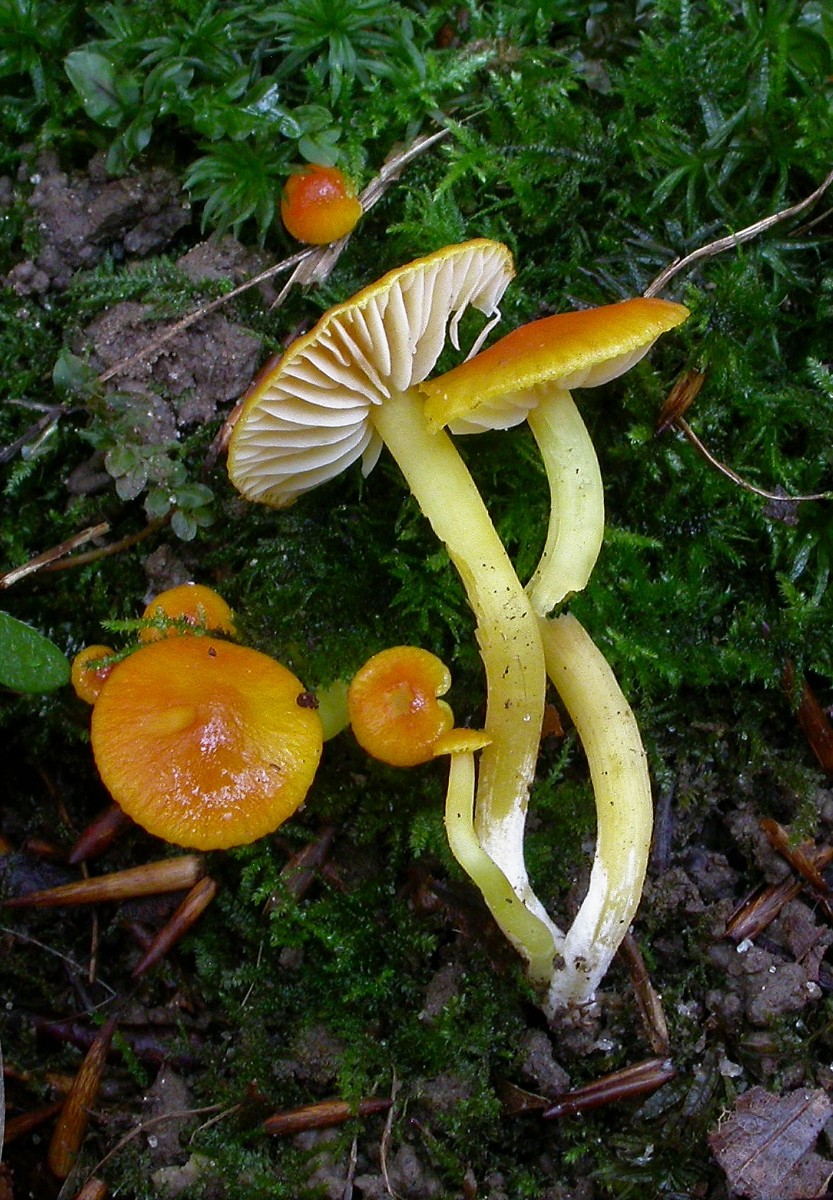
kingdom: Fungi
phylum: Basidiomycota
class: Agaricomycetes
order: Agaricales
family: Hygrophoraceae
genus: Hygrocybe
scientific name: Hygrocybe insipida
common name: liden vokshat
